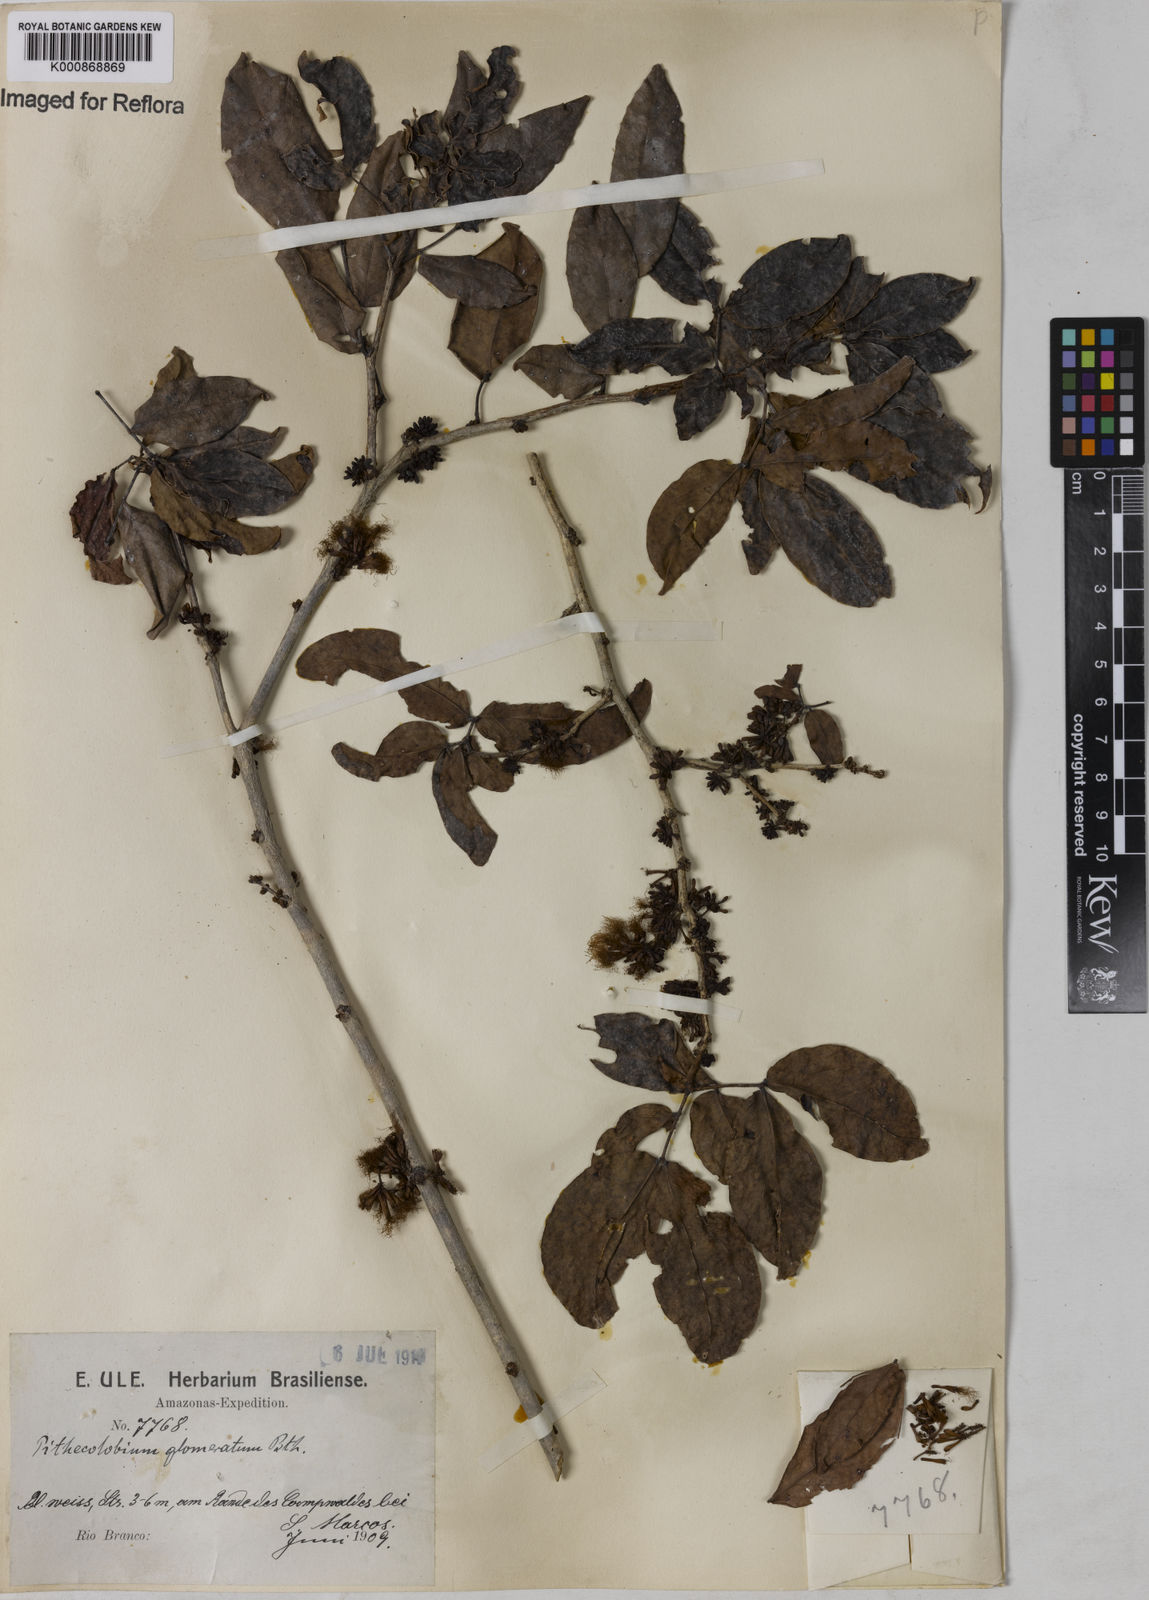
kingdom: Plantae
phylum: Tracheophyta
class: Magnoliopsida
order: Fabales
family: Fabaceae
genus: Zygia
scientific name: Zygia cataractae
